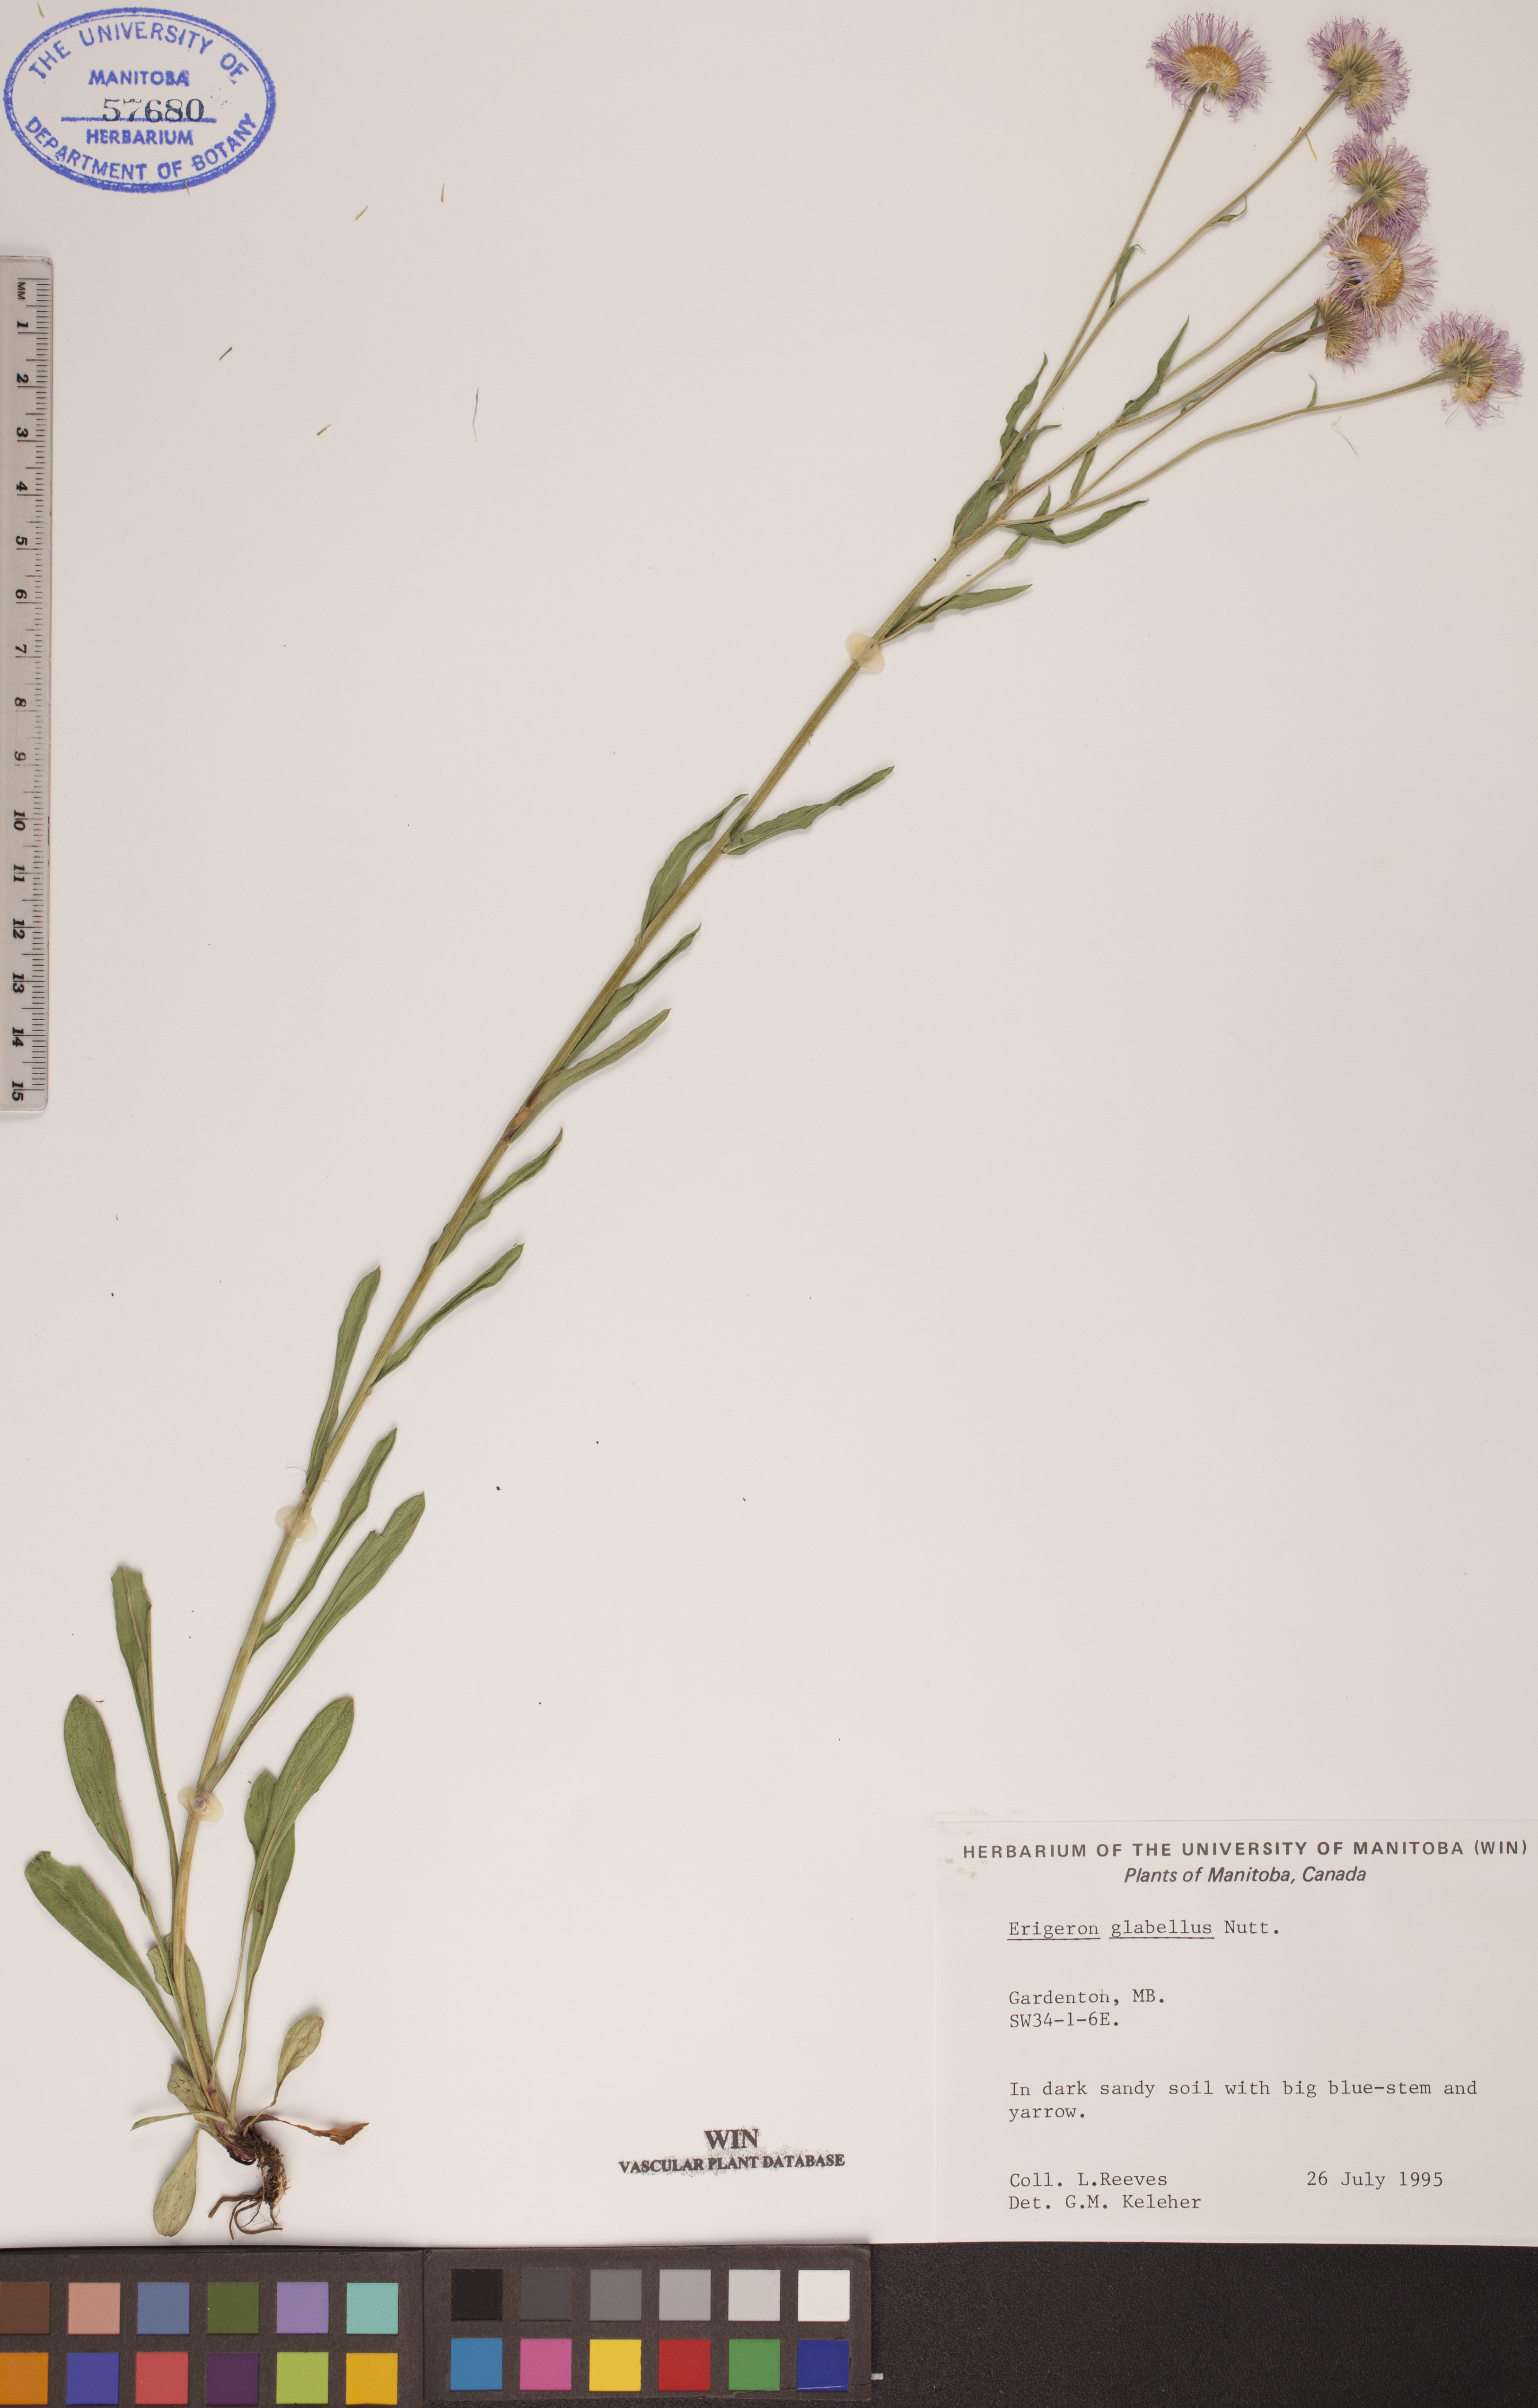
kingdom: Plantae
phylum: Tracheophyta
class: Magnoliopsida
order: Asterales
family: Asteraceae
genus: Erigeron
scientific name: Erigeron glabellus
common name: Smooth fleabane
